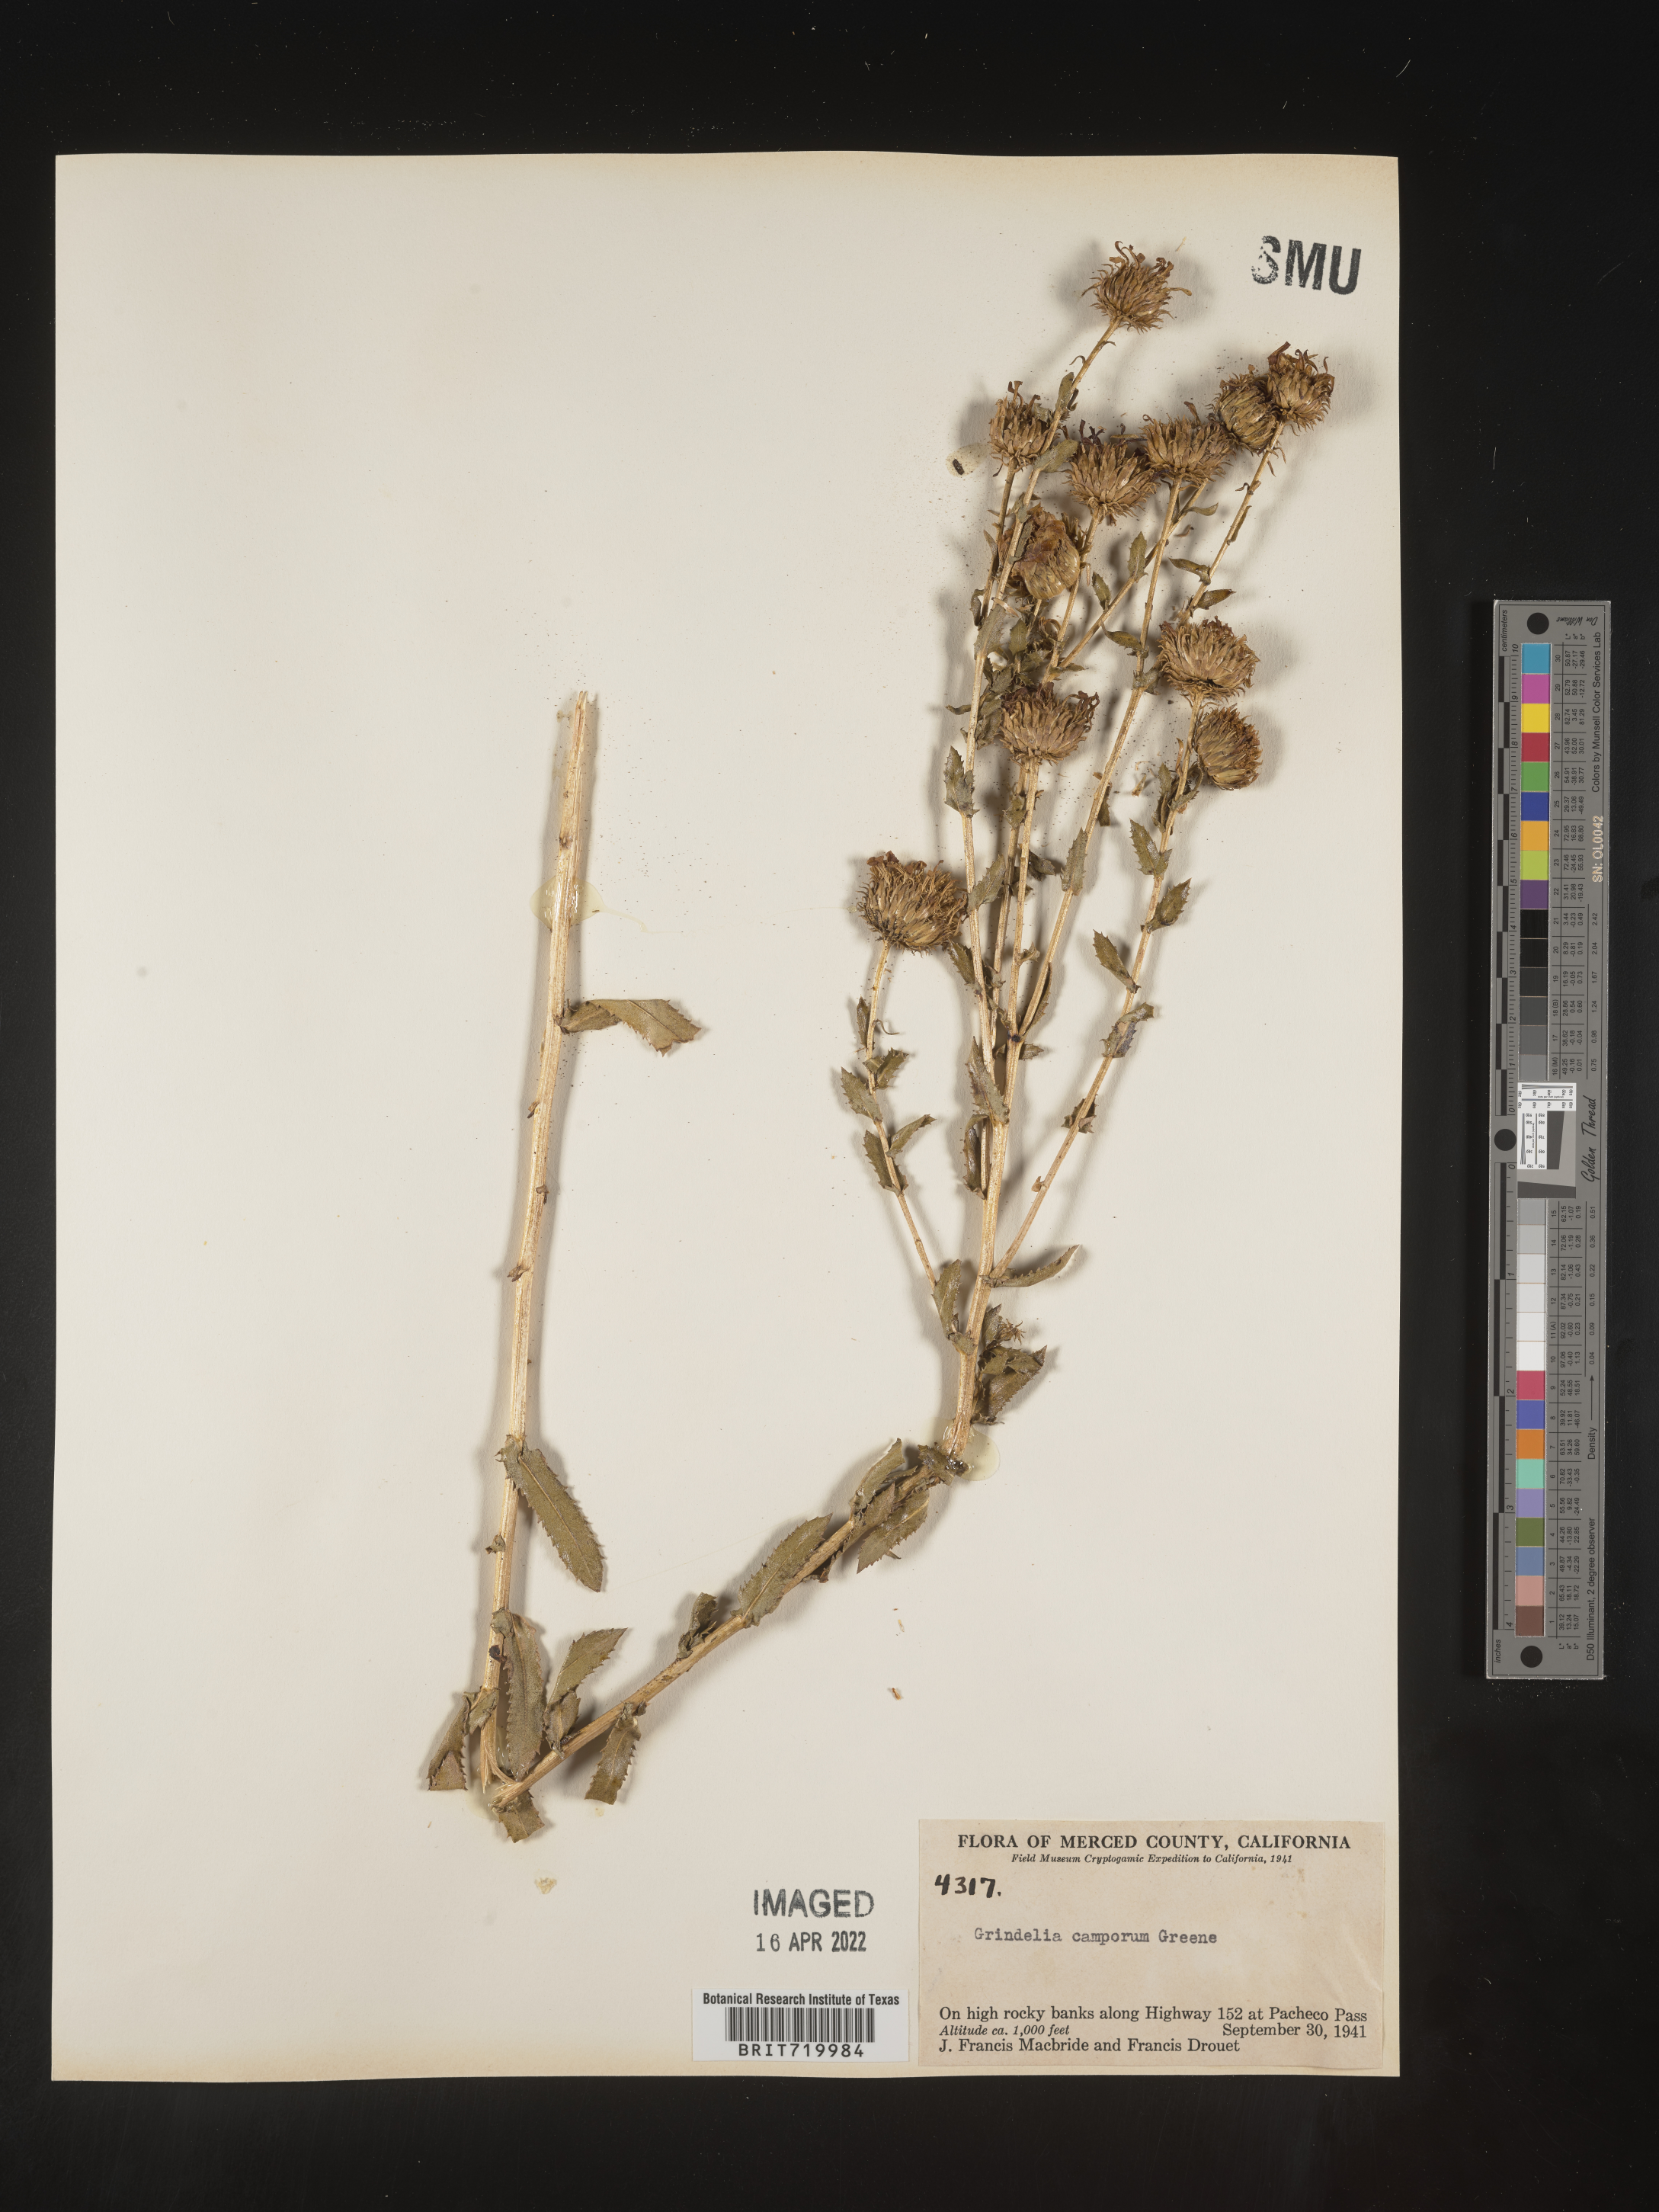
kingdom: Plantae
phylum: Tracheophyta
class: Magnoliopsida
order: Asterales
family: Asteraceae
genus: Grindelia
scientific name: Grindelia hirsutula
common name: Hairy gumweed
